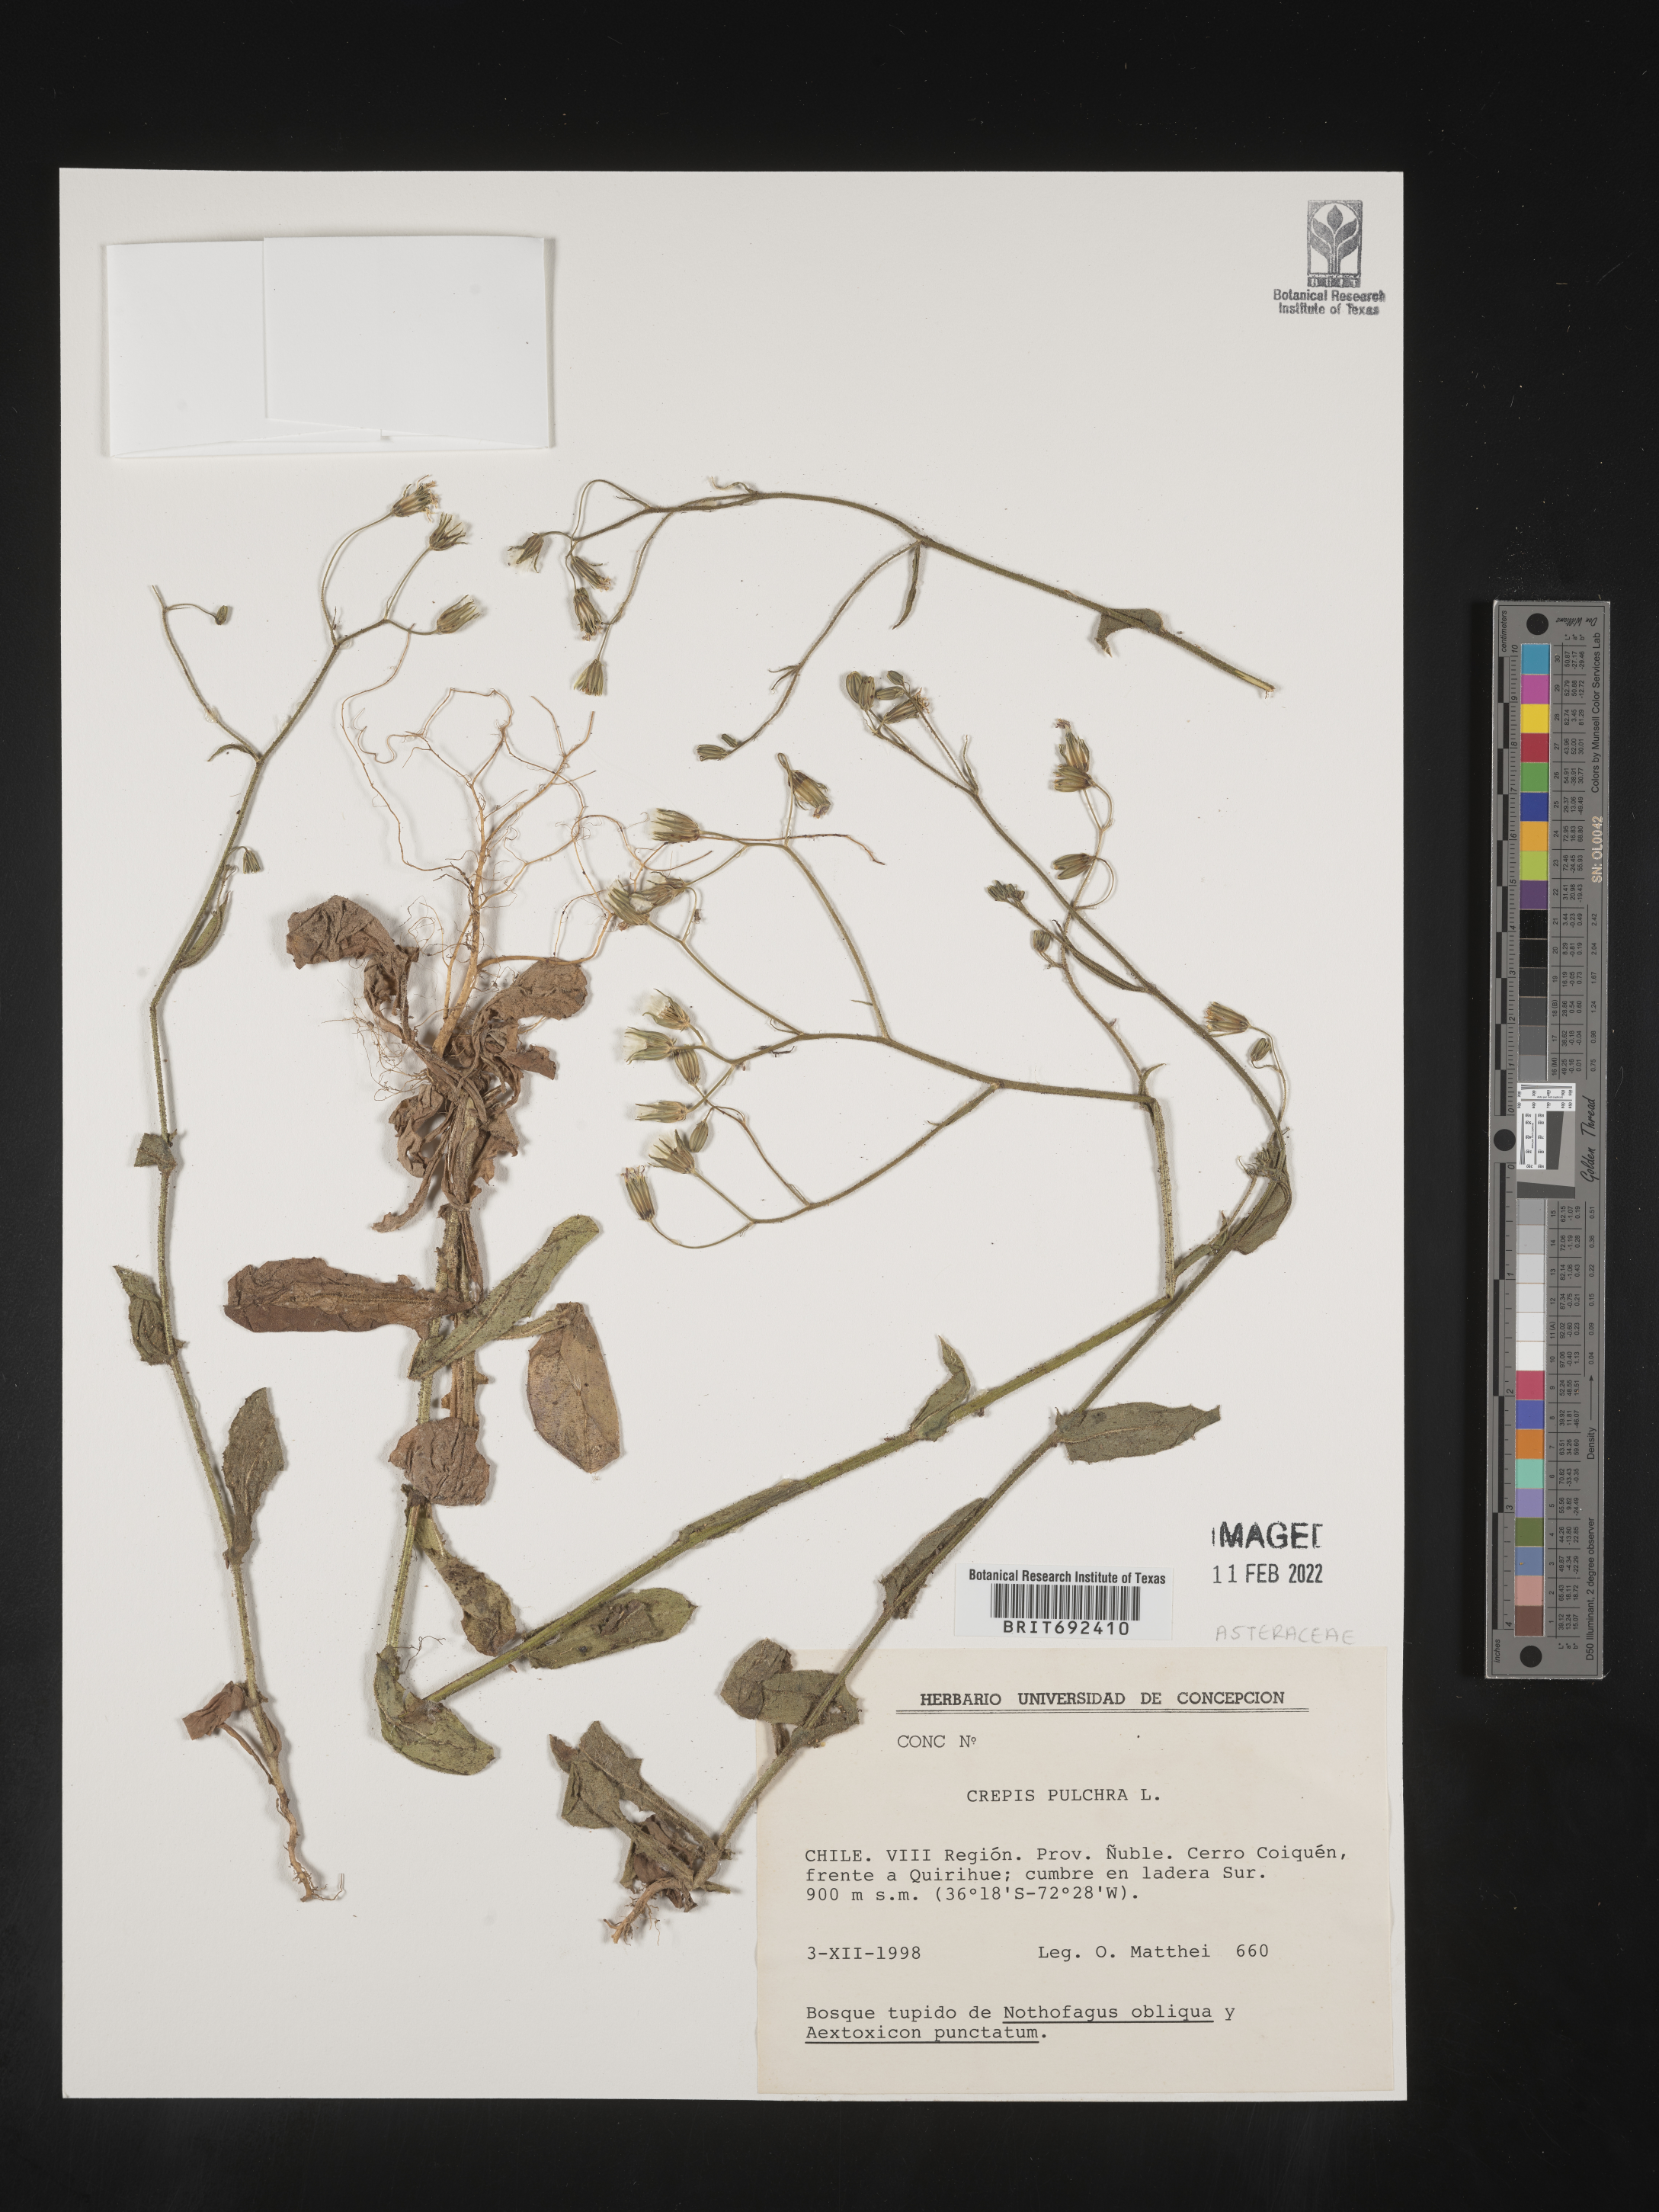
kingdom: Plantae
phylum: Tracheophyta
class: Magnoliopsida
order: Asterales
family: Asteraceae
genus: Crepis
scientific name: Crepis
